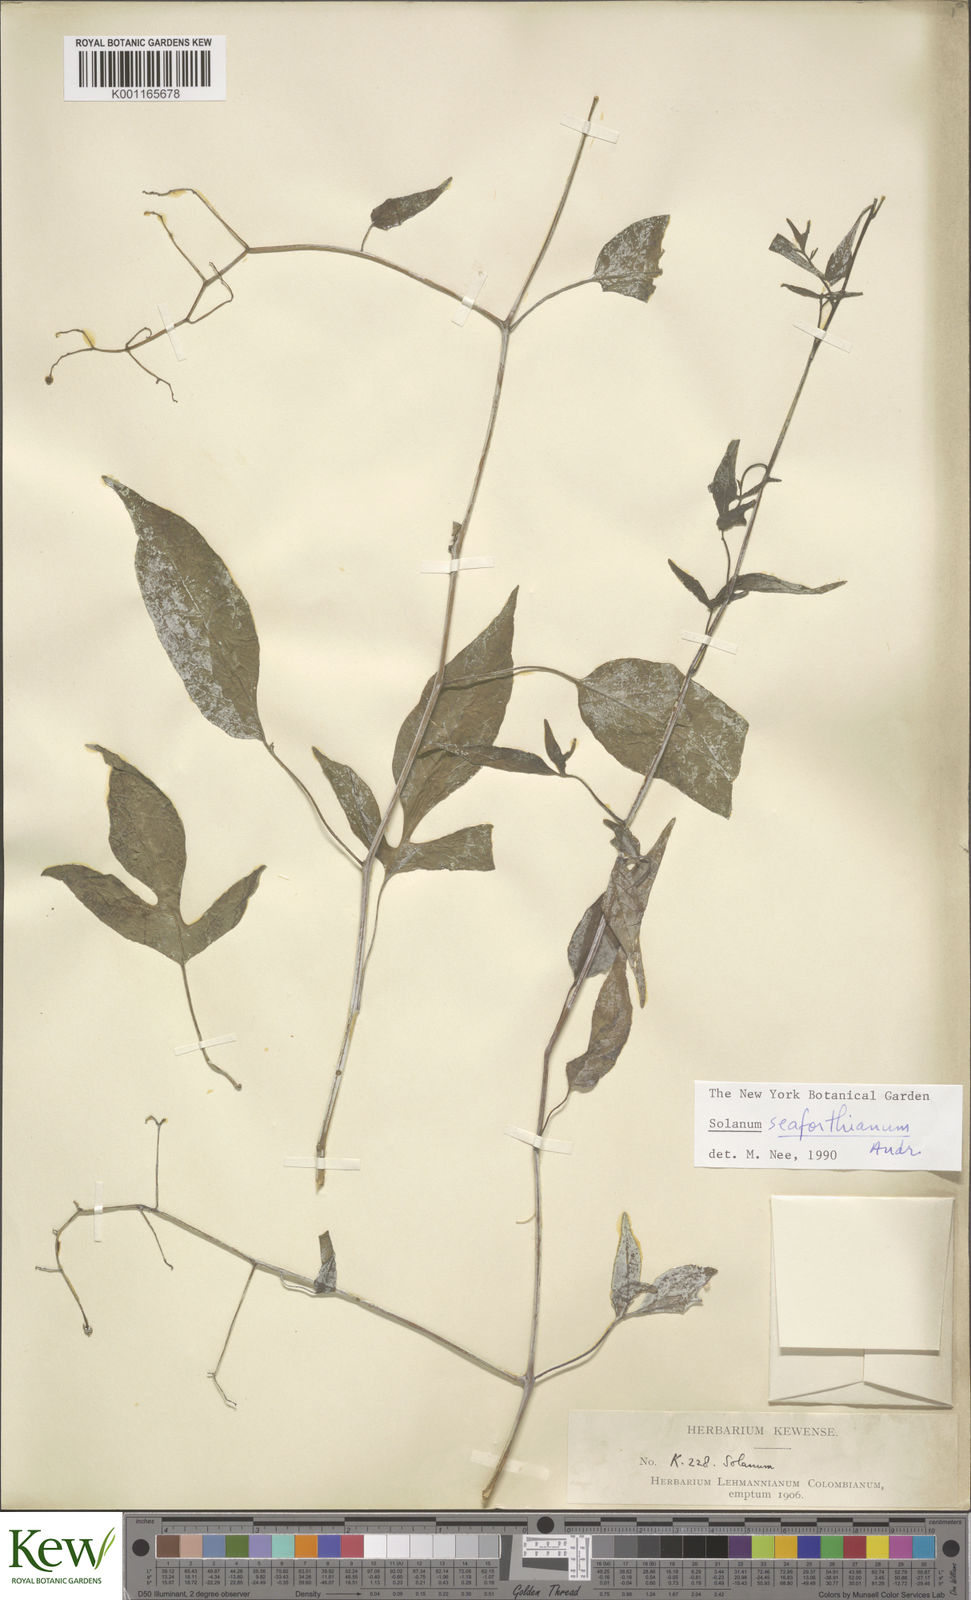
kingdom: Plantae
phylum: Tracheophyta
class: Magnoliopsida
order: Solanales
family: Solanaceae
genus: Solanum
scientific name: Solanum seaforthianum
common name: Brazilian nightshade
